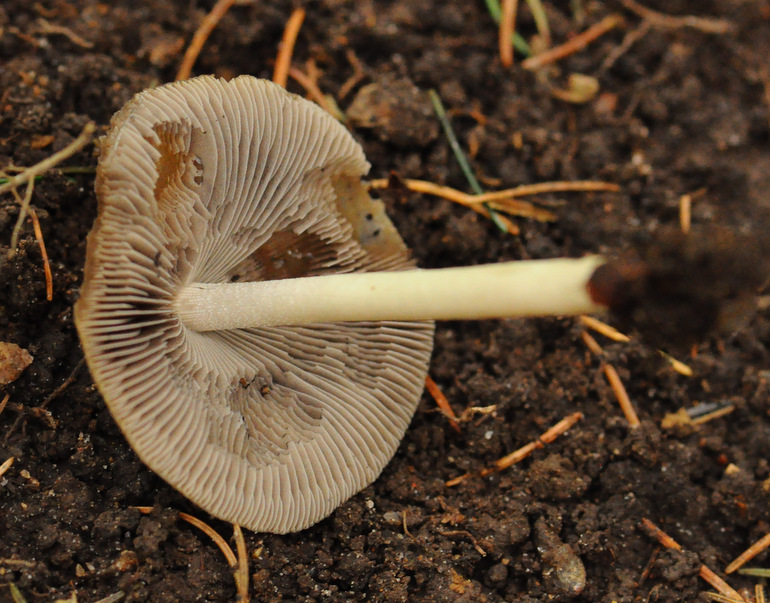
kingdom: Fungi
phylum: Basidiomycota
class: Agaricomycetes
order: Agaricales
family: Psathyrellaceae
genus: Psathyrella
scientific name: Psathyrella fusca
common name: gråbladet mørkhat
